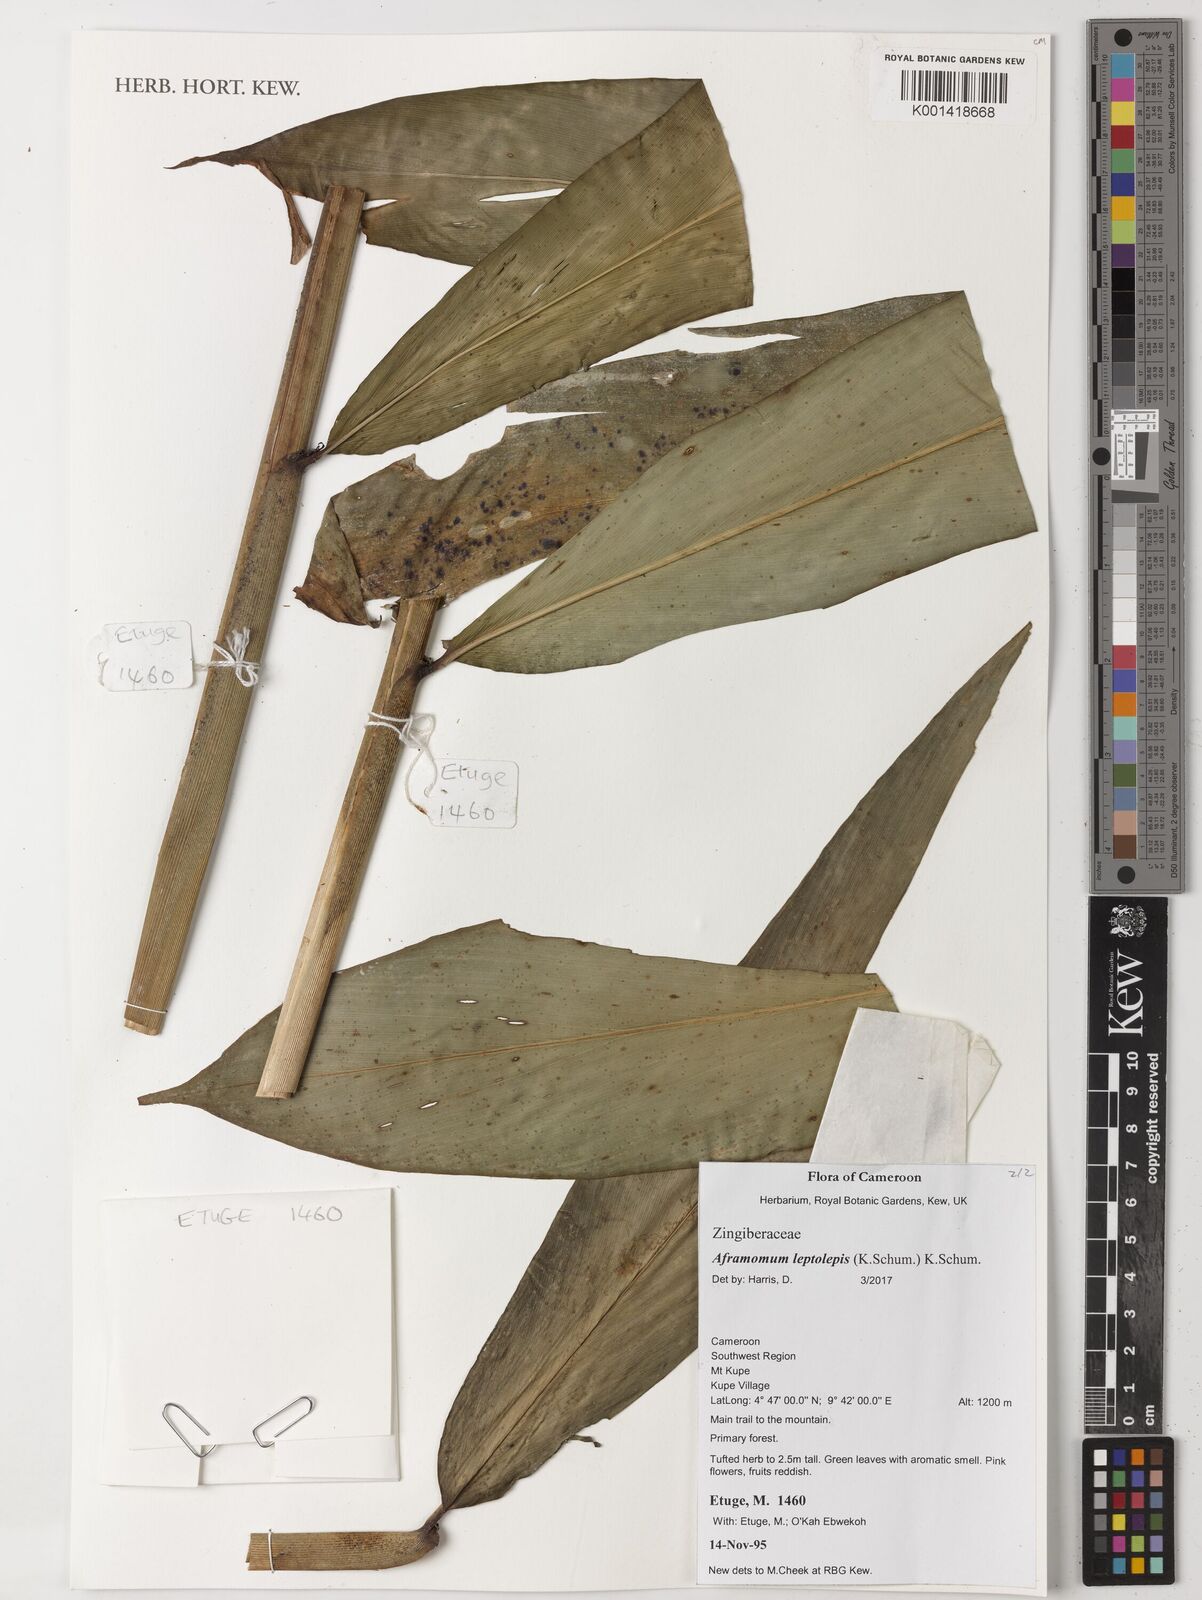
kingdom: Plantae
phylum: Tracheophyta
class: Liliopsida
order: Zingiberales
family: Zingiberaceae
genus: Aframomum
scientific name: Aframomum leptolepis
